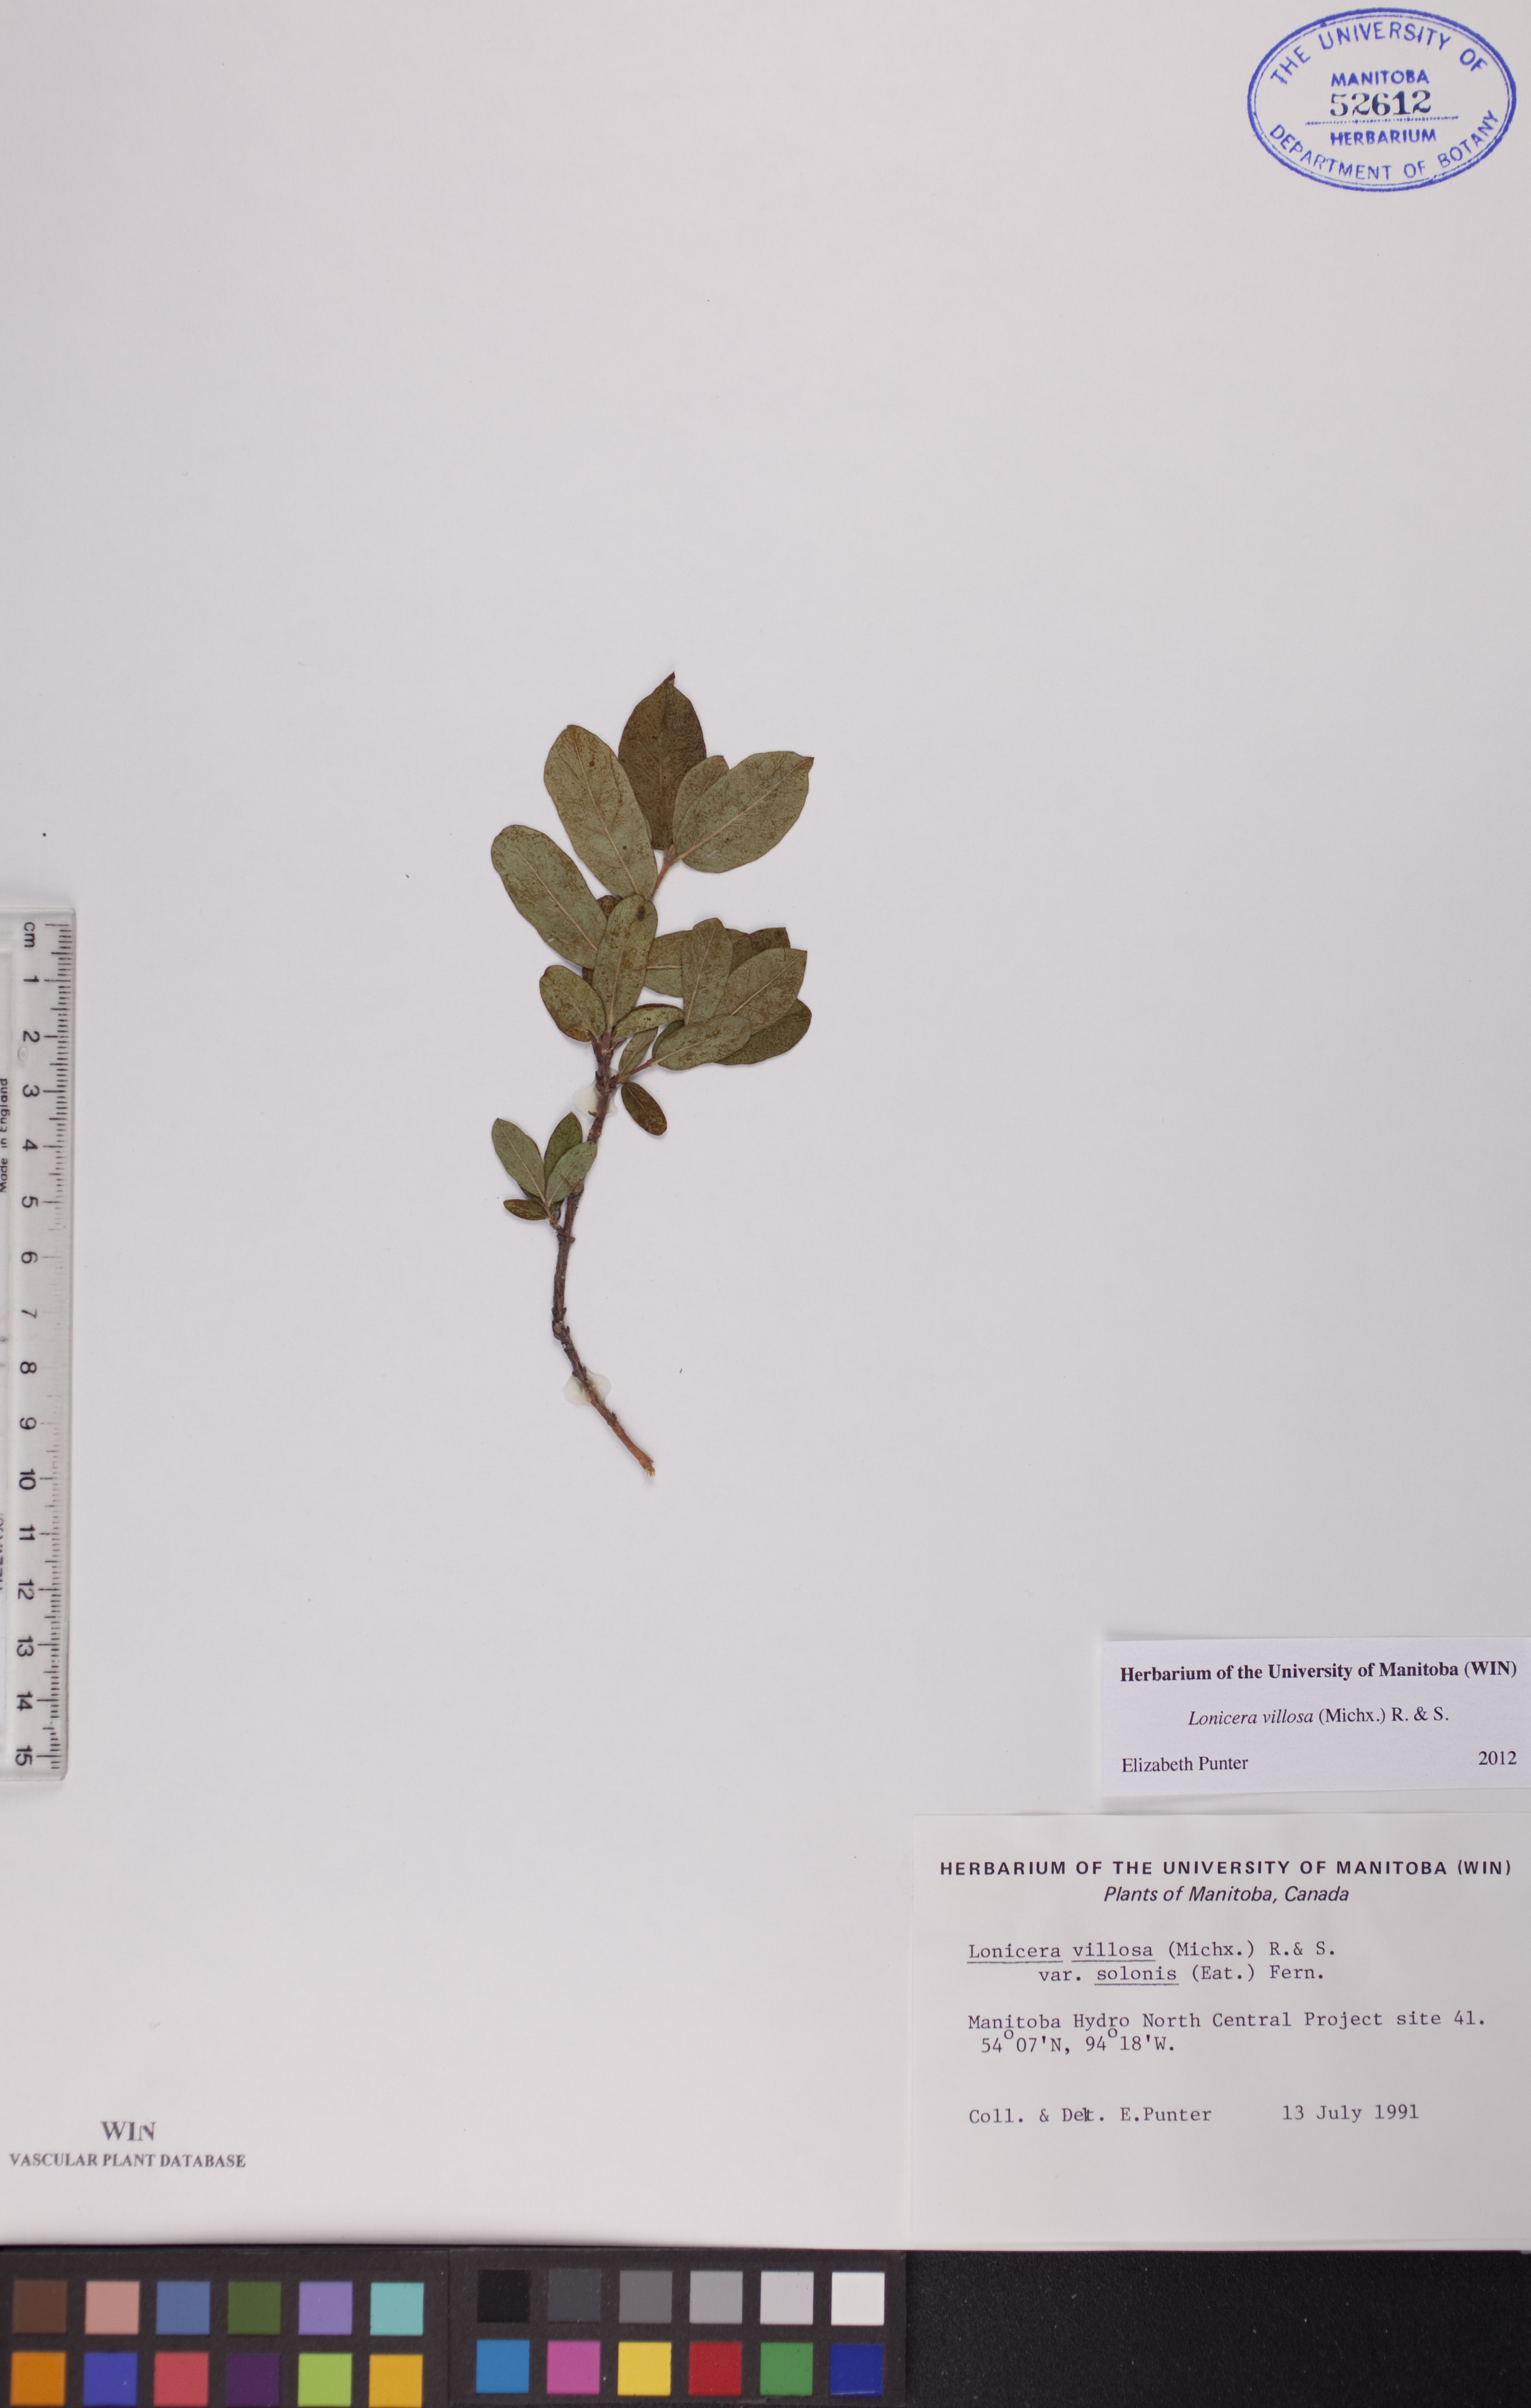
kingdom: Plantae
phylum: Tracheophyta
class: Magnoliopsida
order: Dipsacales
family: Caprifoliaceae
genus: Lonicera
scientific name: Lonicera villosa
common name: Mountain fly-honeysuckle
